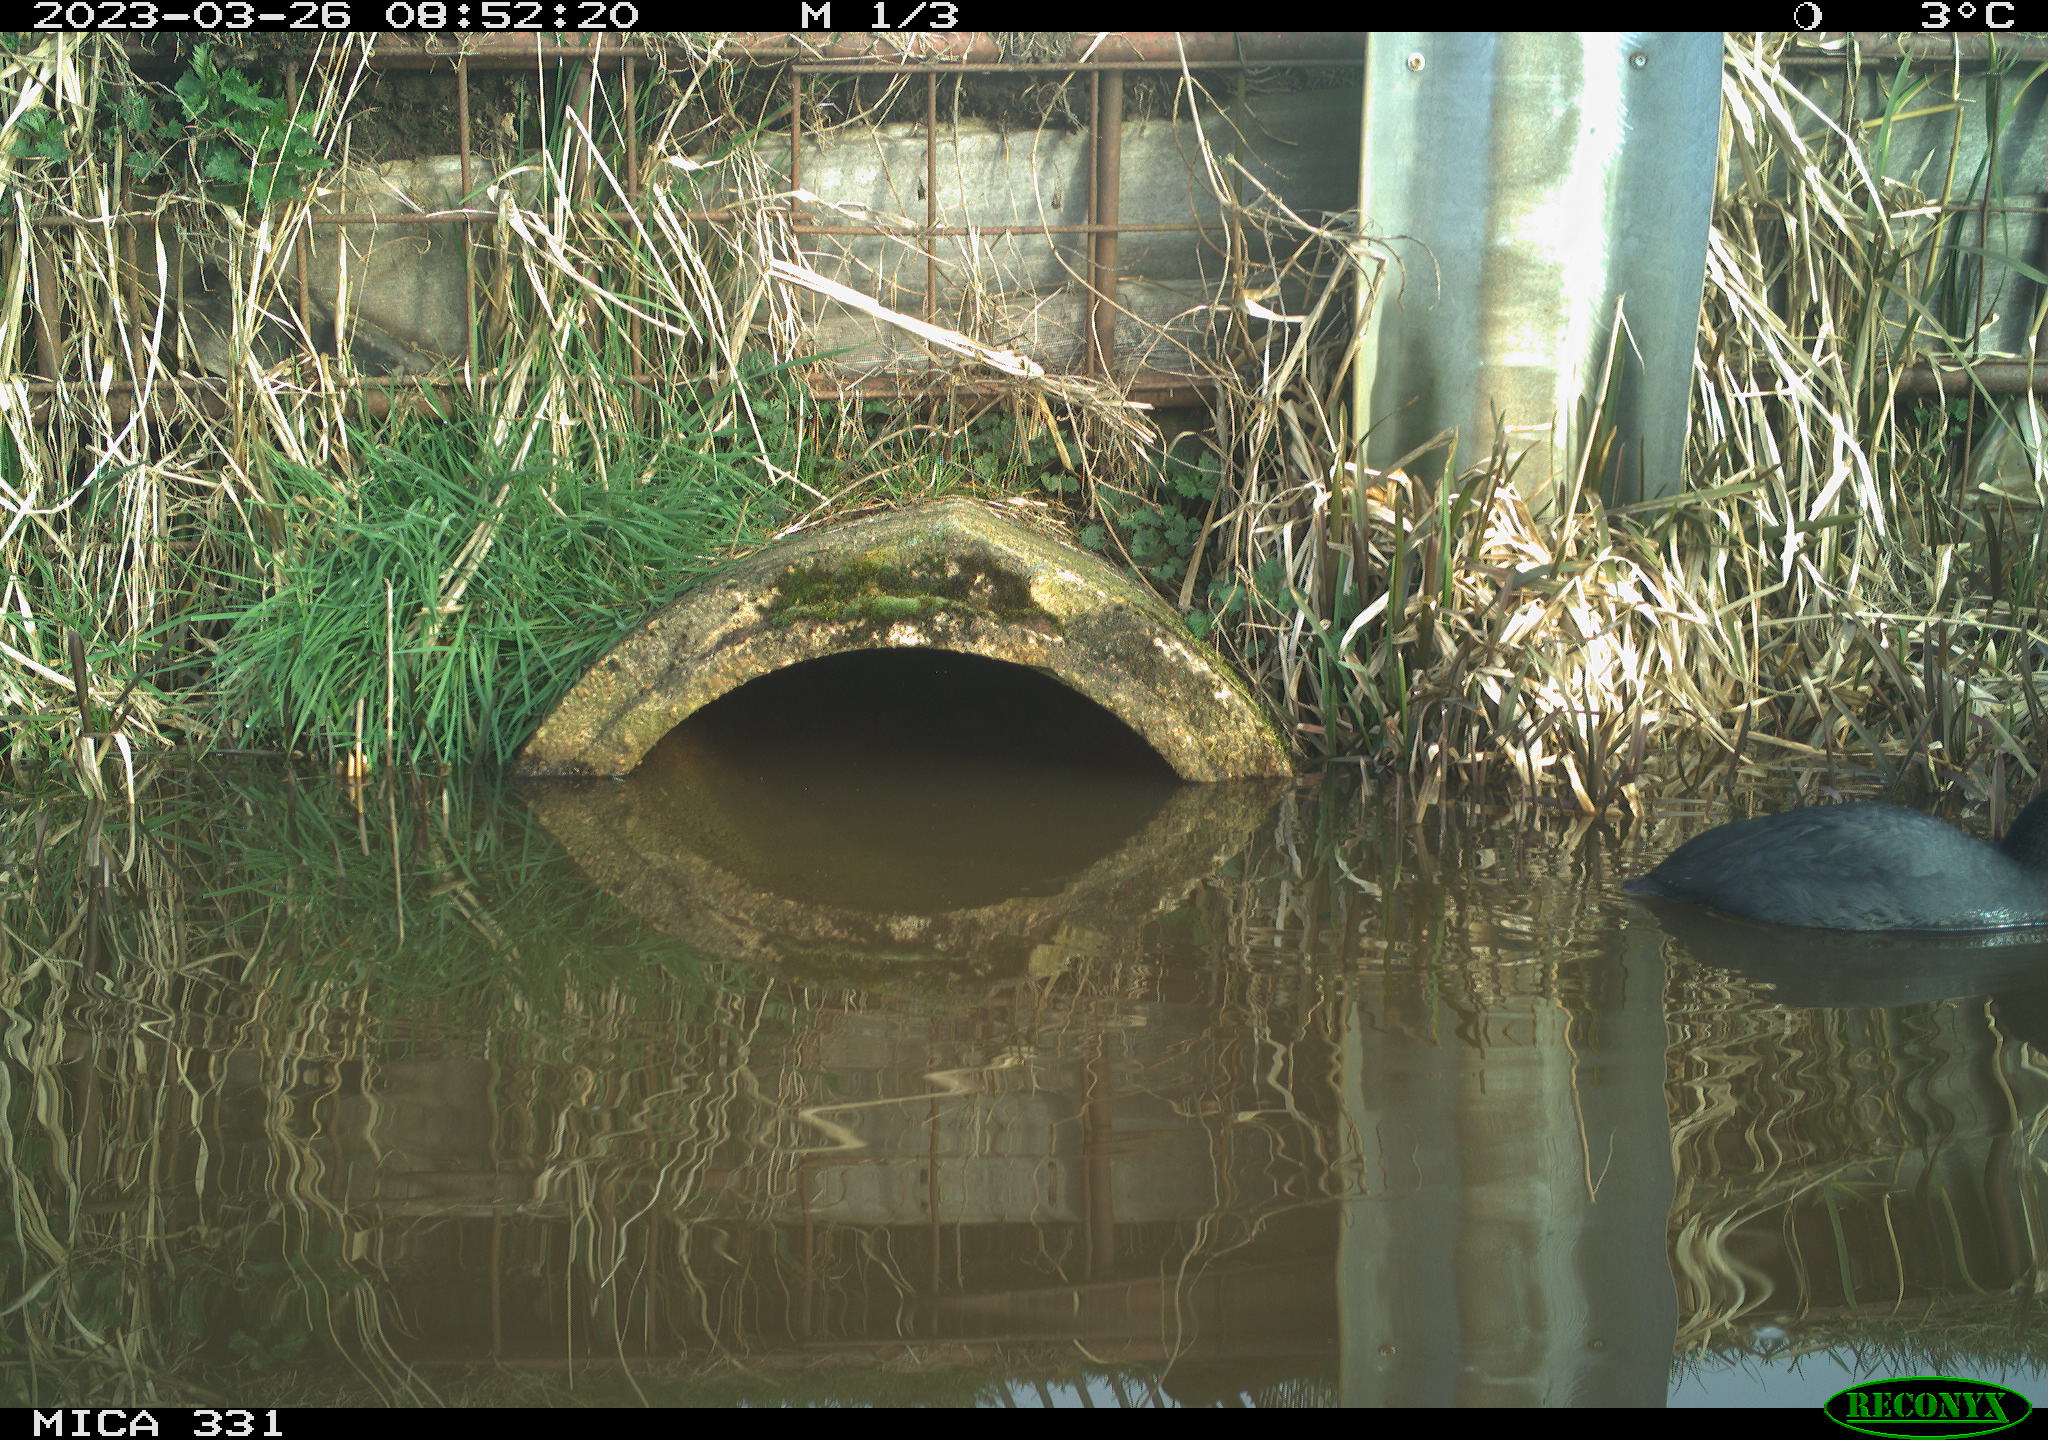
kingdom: Animalia
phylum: Chordata
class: Aves
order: Gruiformes
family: Rallidae
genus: Fulica
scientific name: Fulica atra
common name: Eurasian coot
